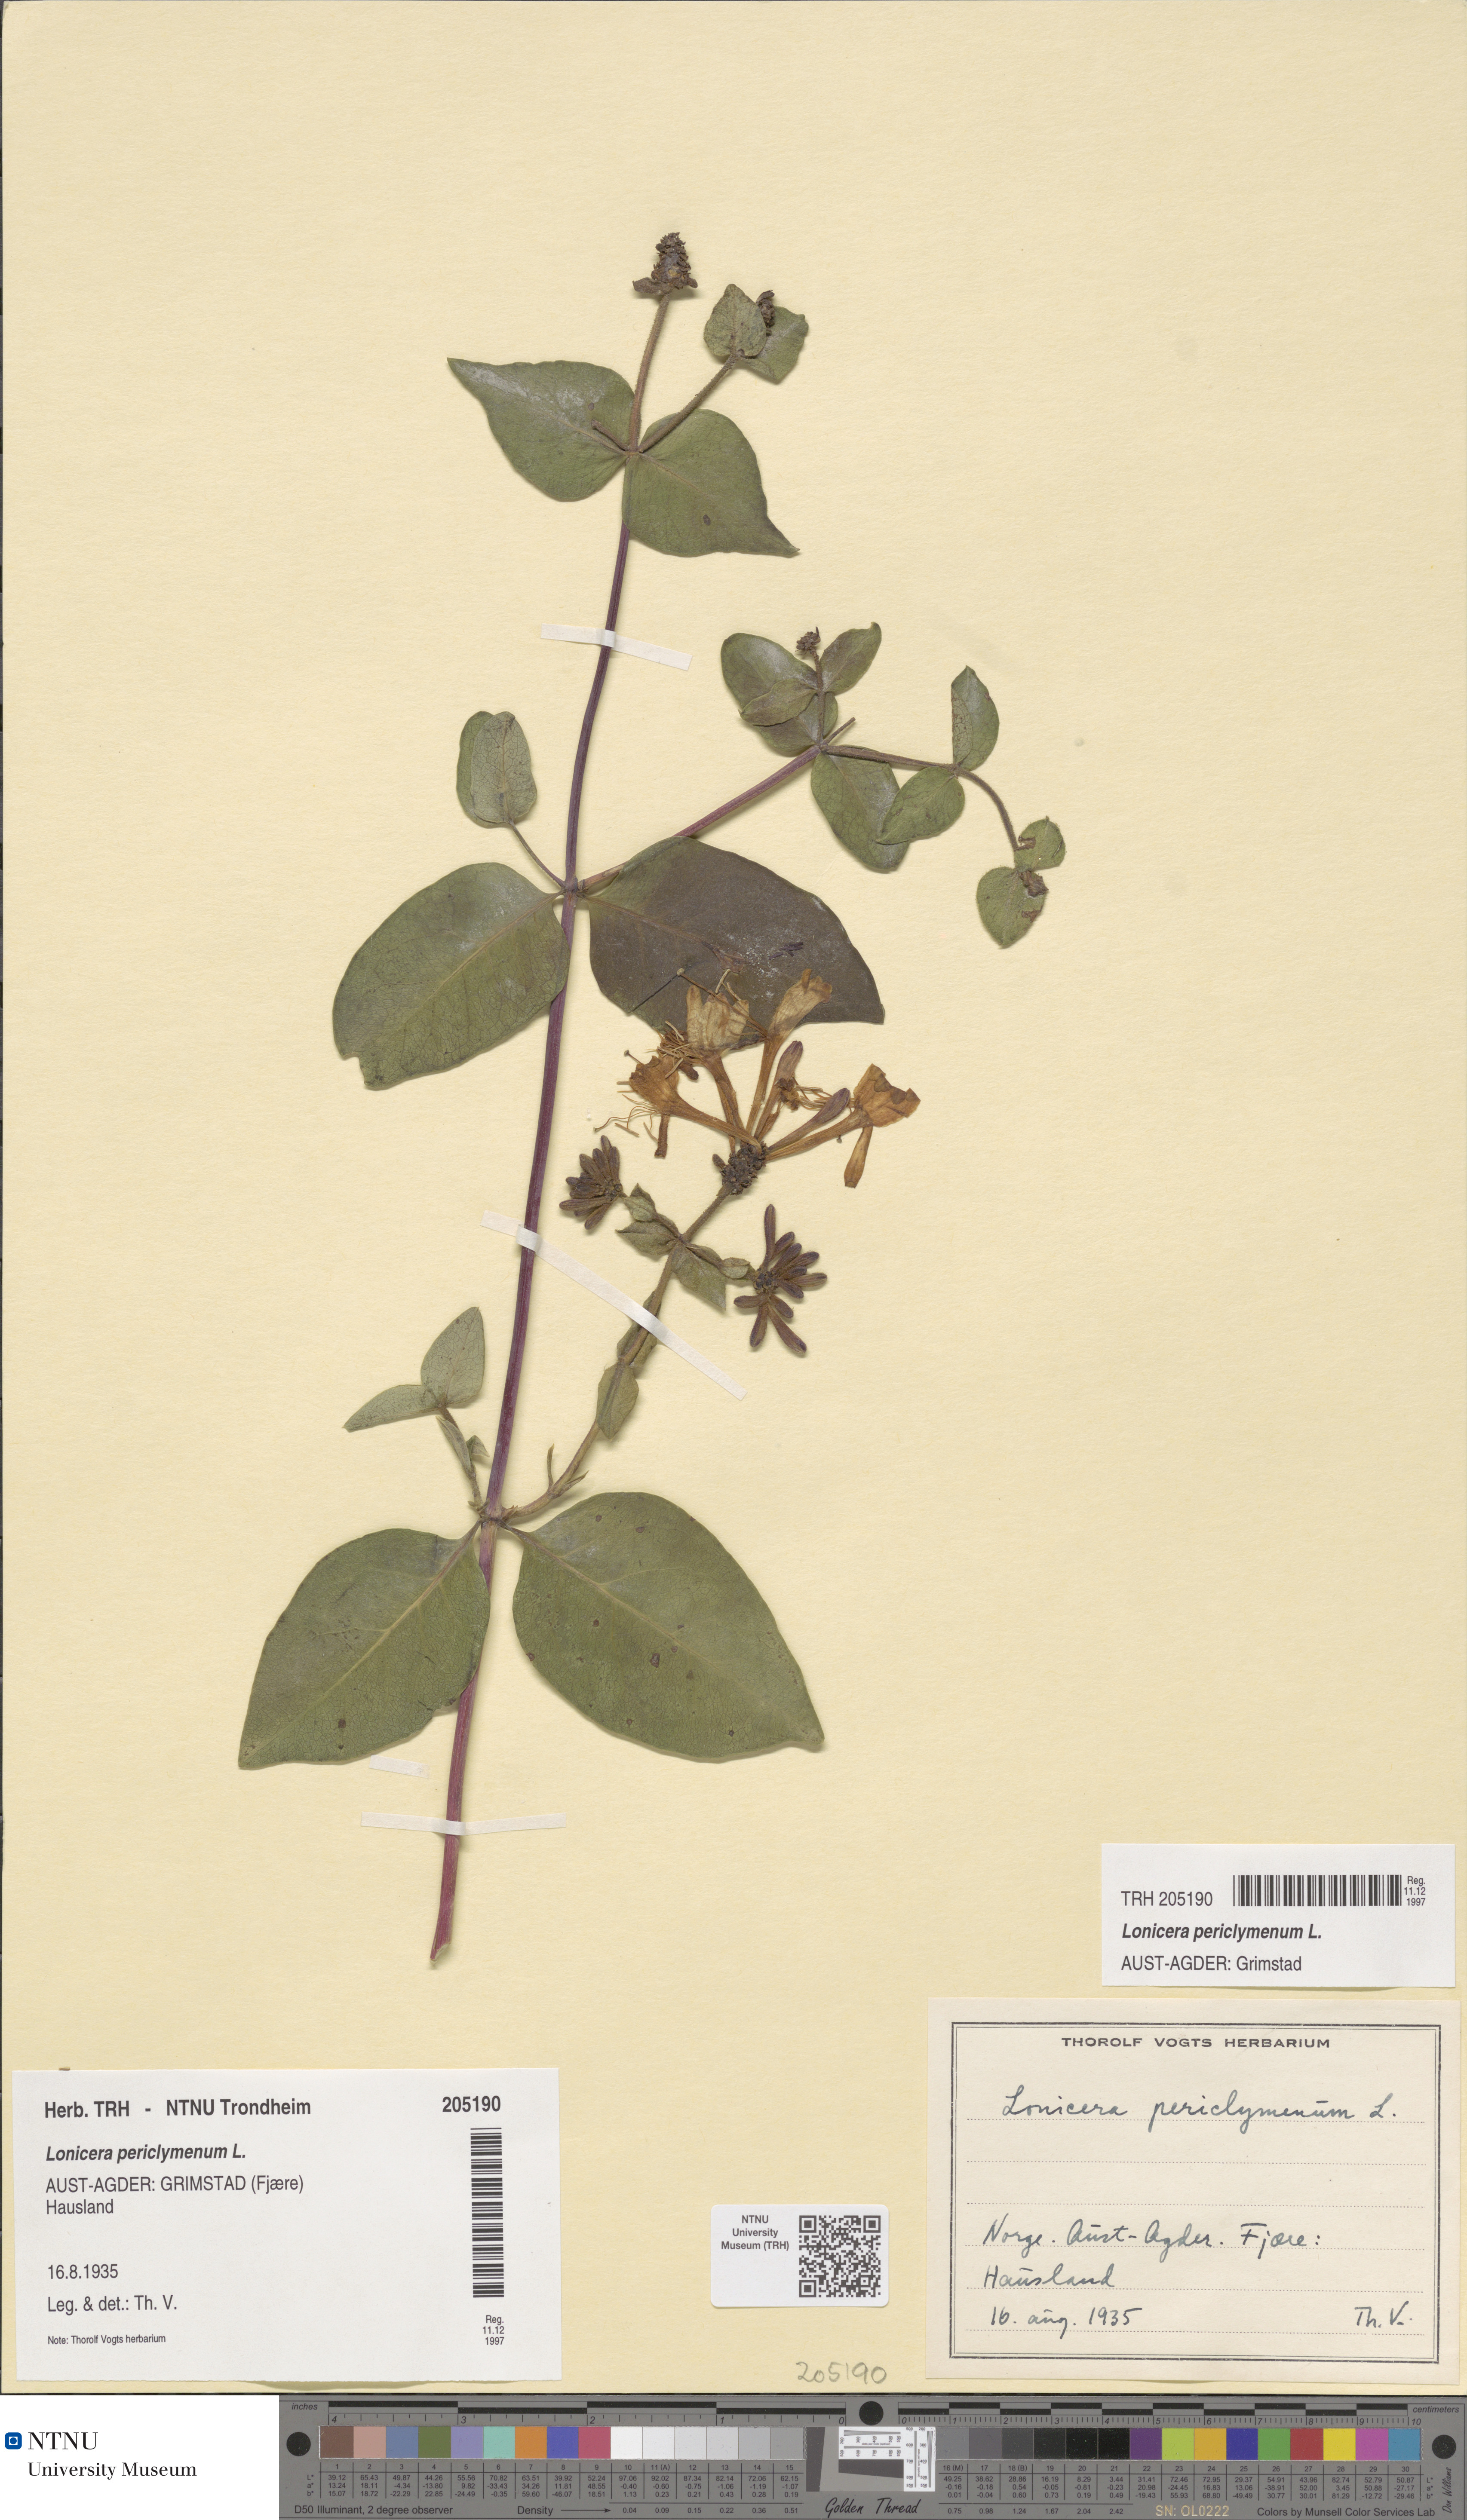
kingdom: Plantae
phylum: Tracheophyta
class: Magnoliopsida
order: Dipsacales
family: Caprifoliaceae
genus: Lonicera
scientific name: Lonicera periclymenum
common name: European honeysuckle
